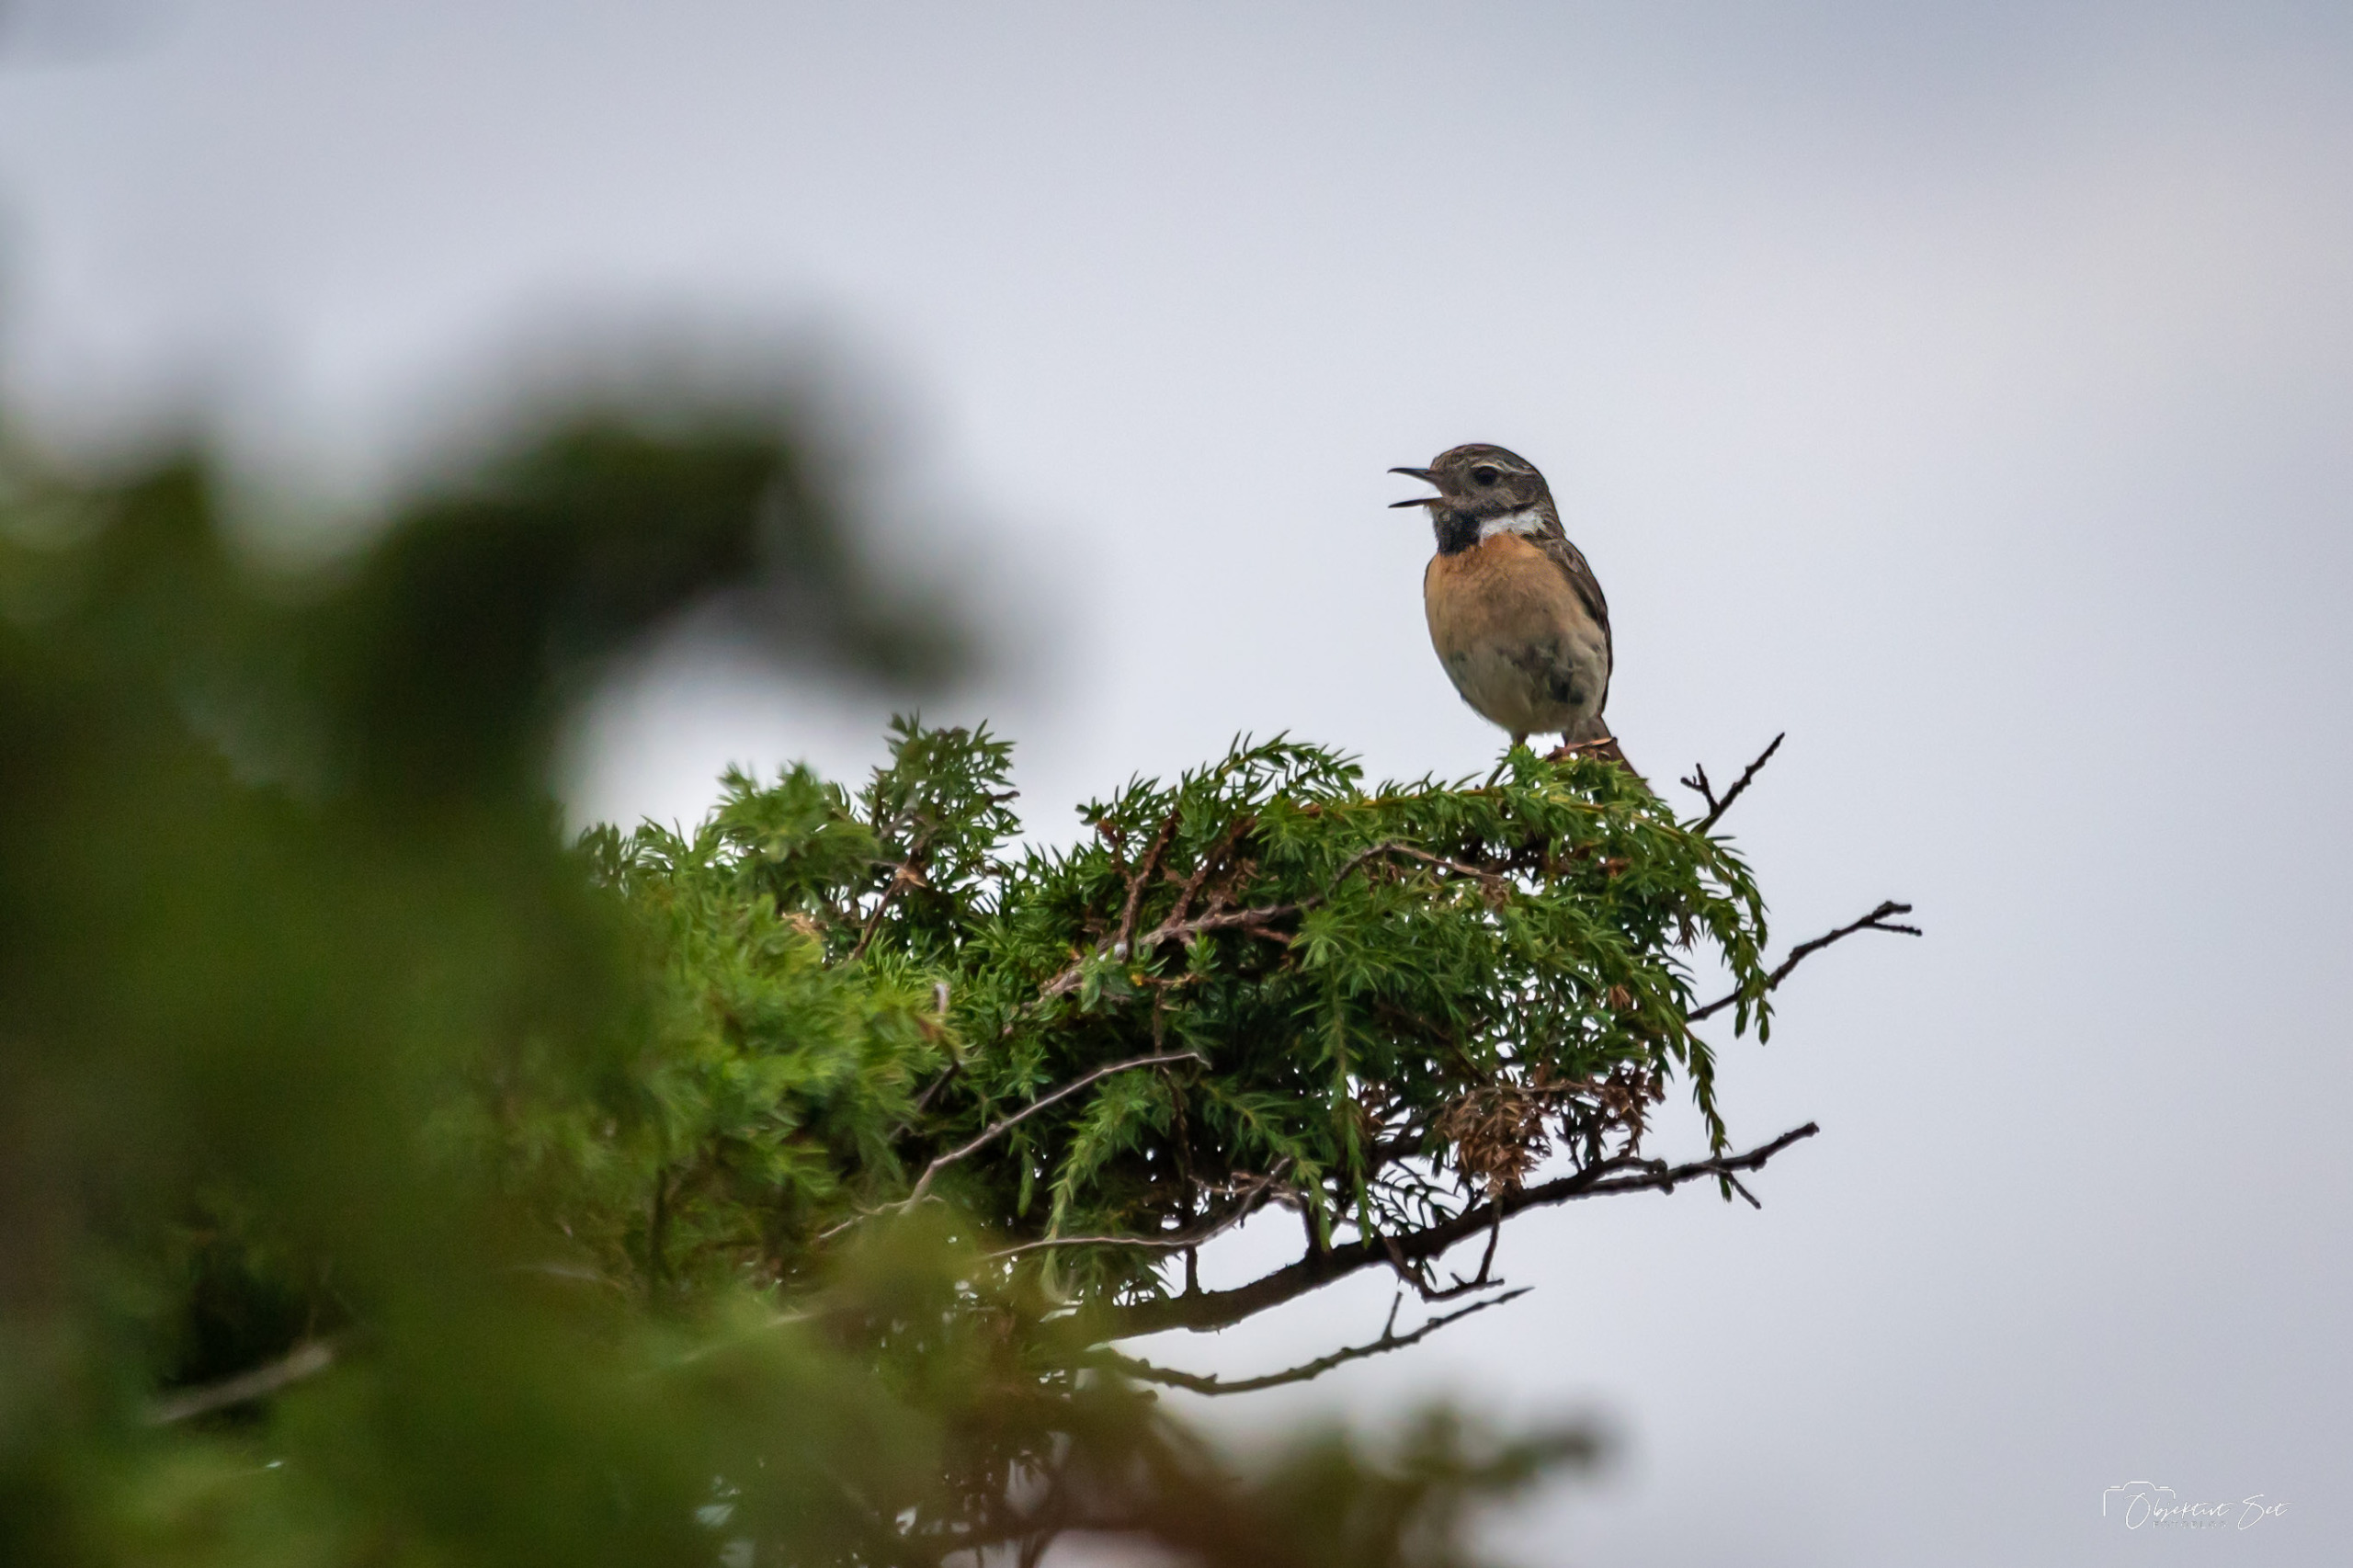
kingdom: Animalia
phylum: Chordata
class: Aves
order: Passeriformes
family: Muscicapidae
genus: Saxicola
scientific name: Saxicola rubicola
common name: Sortstrubet bynkefugl
